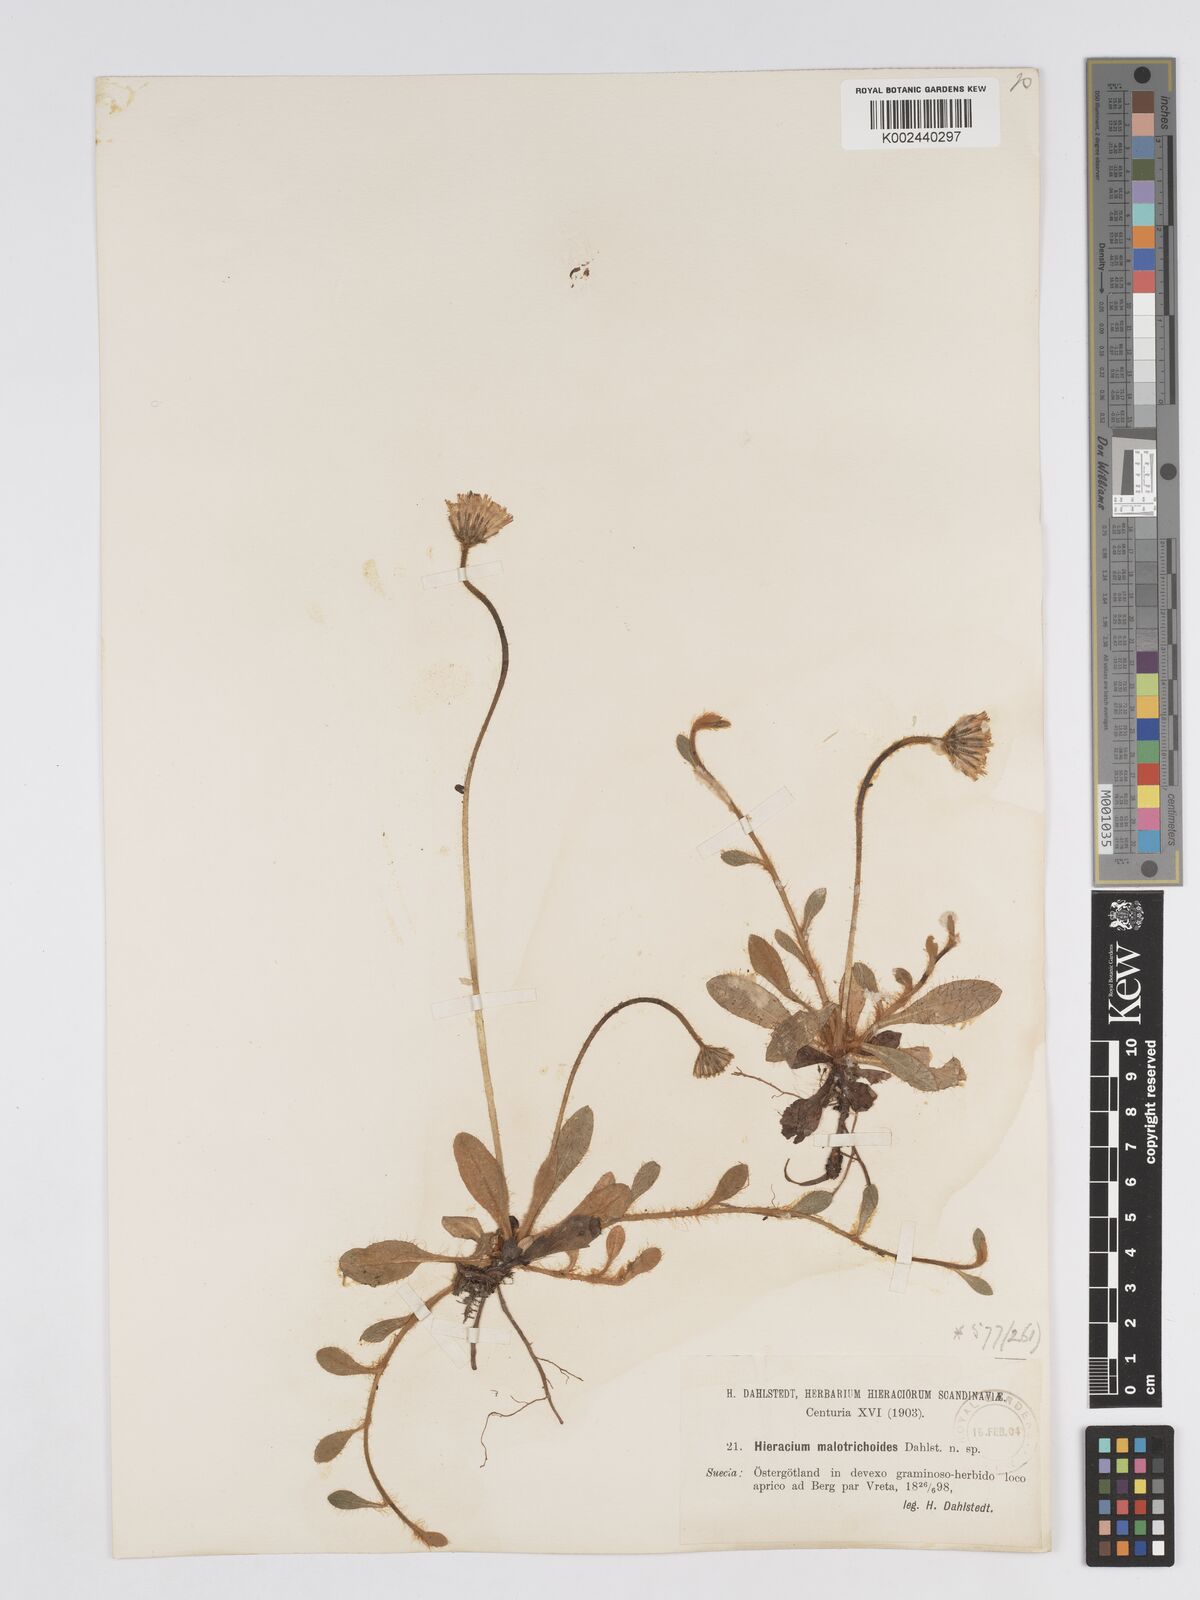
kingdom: Plantae
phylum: Tracheophyta
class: Magnoliopsida
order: Asterales
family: Asteraceae
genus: Pilosella
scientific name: Pilosella officinarum
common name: Mouse-ear hawkweed
